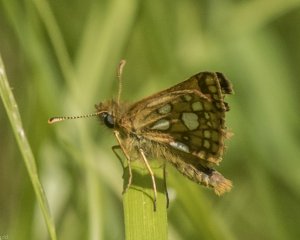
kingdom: Animalia
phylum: Arthropoda
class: Insecta
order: Lepidoptera
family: Hesperiidae
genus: Carterocephalus
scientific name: Carterocephalus palaemon
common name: Chequered Skipper
